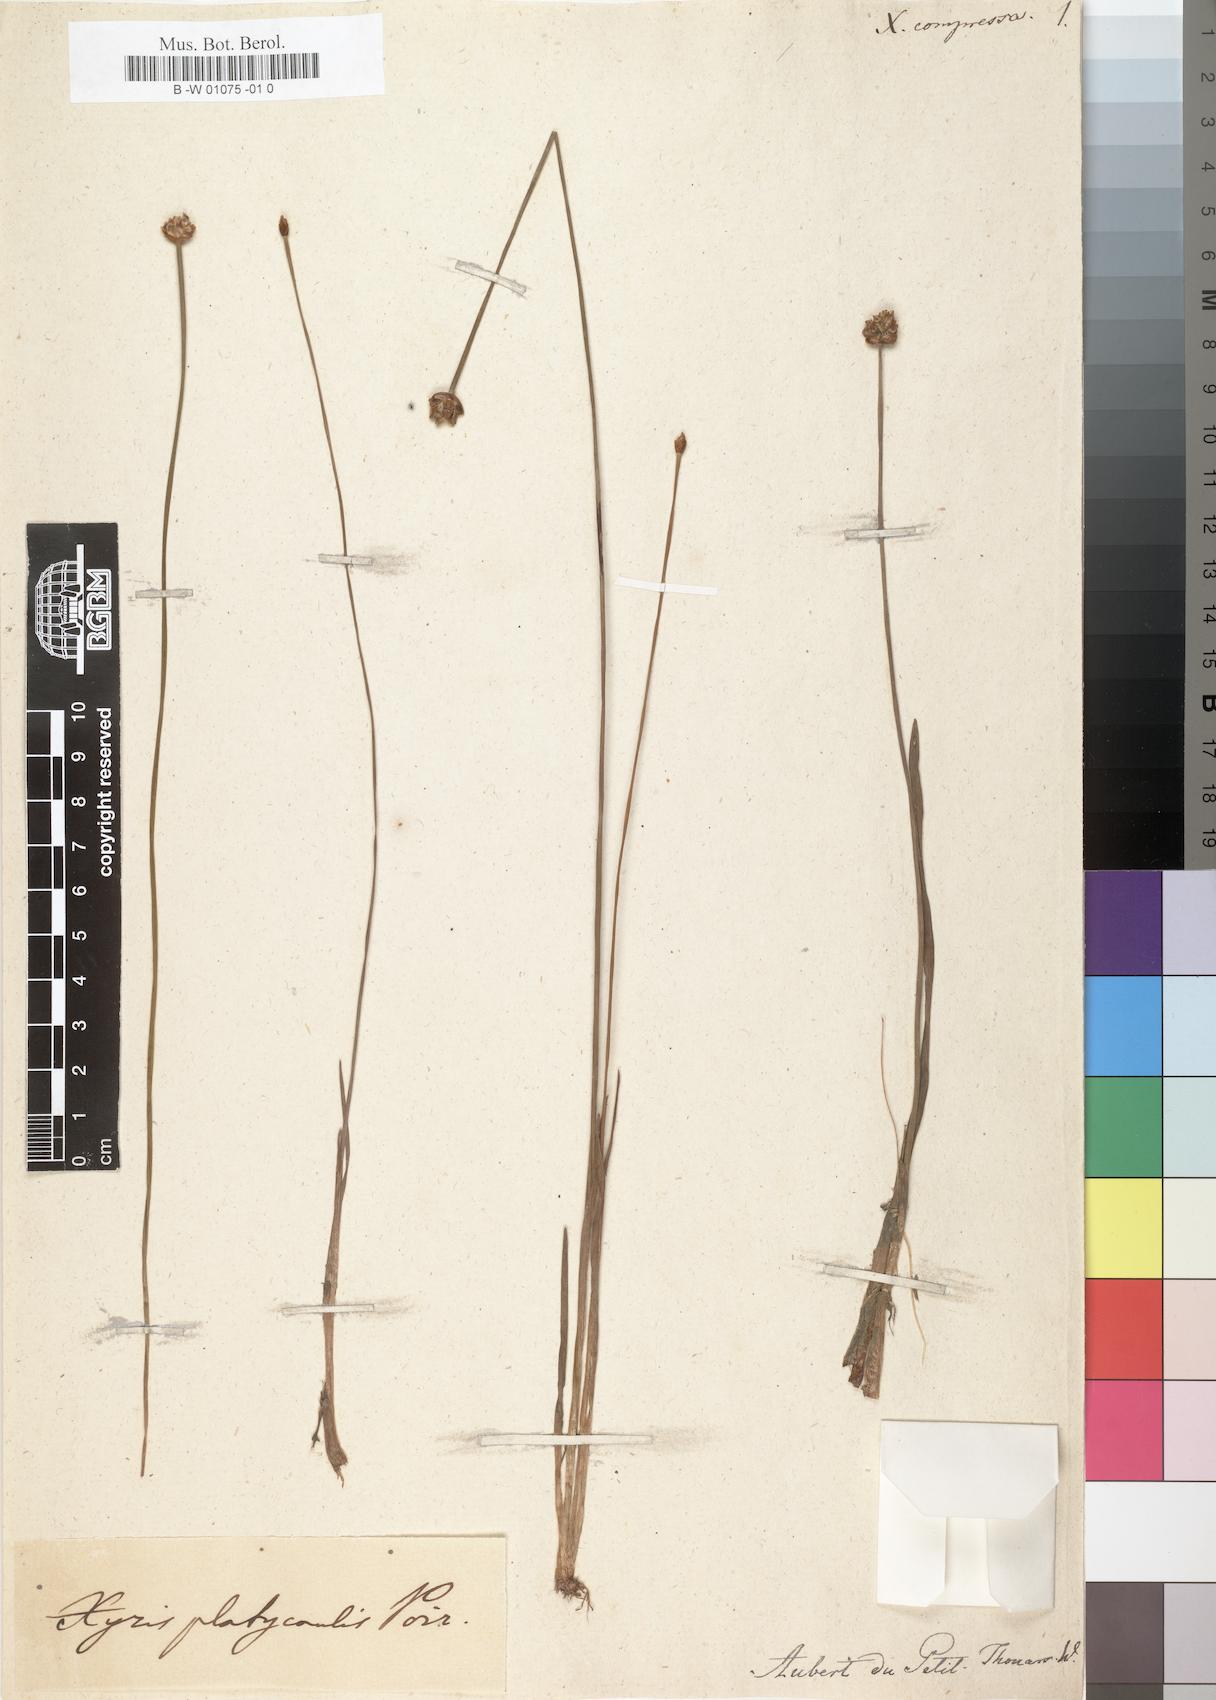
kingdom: Plantae
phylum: Tracheophyta
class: Liliopsida
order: Poales
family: Xyridaceae
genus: Xyris
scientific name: Xyris anceps
